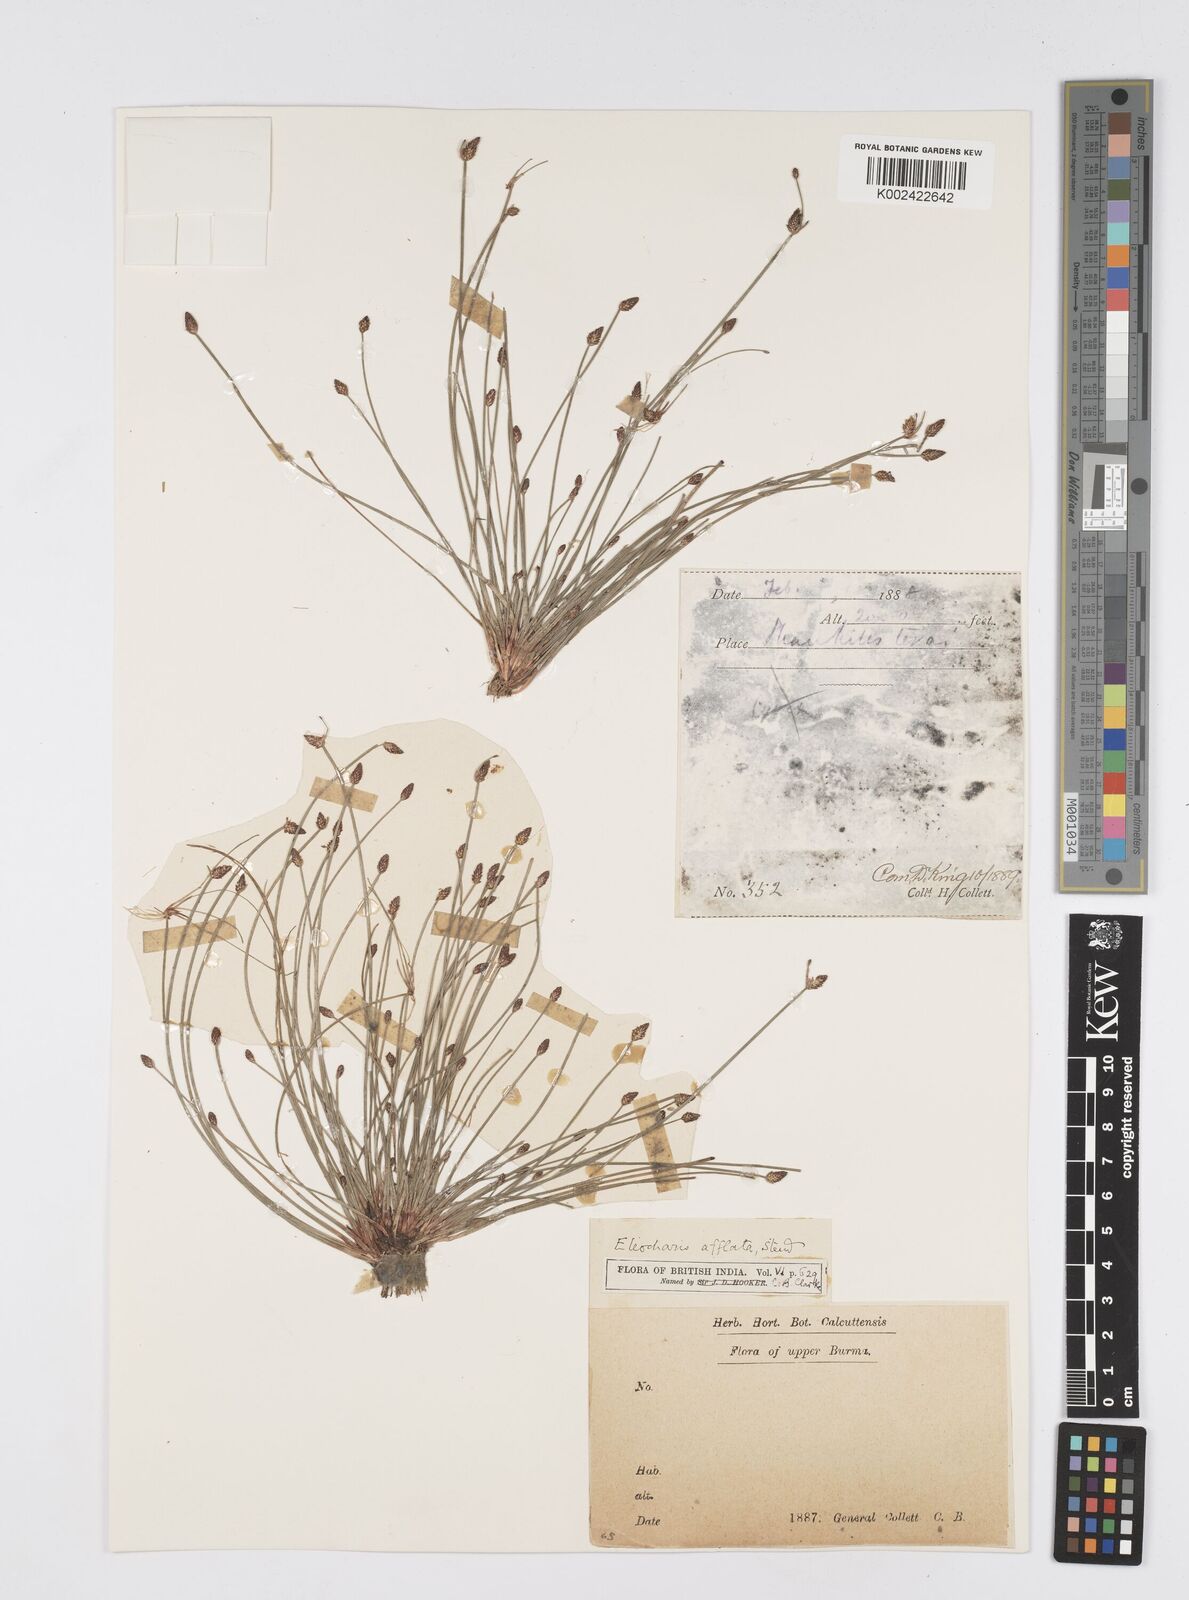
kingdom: Plantae
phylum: Tracheophyta
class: Liliopsida
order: Poales
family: Cyperaceae
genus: Eleocharis
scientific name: Eleocharis pellucida
